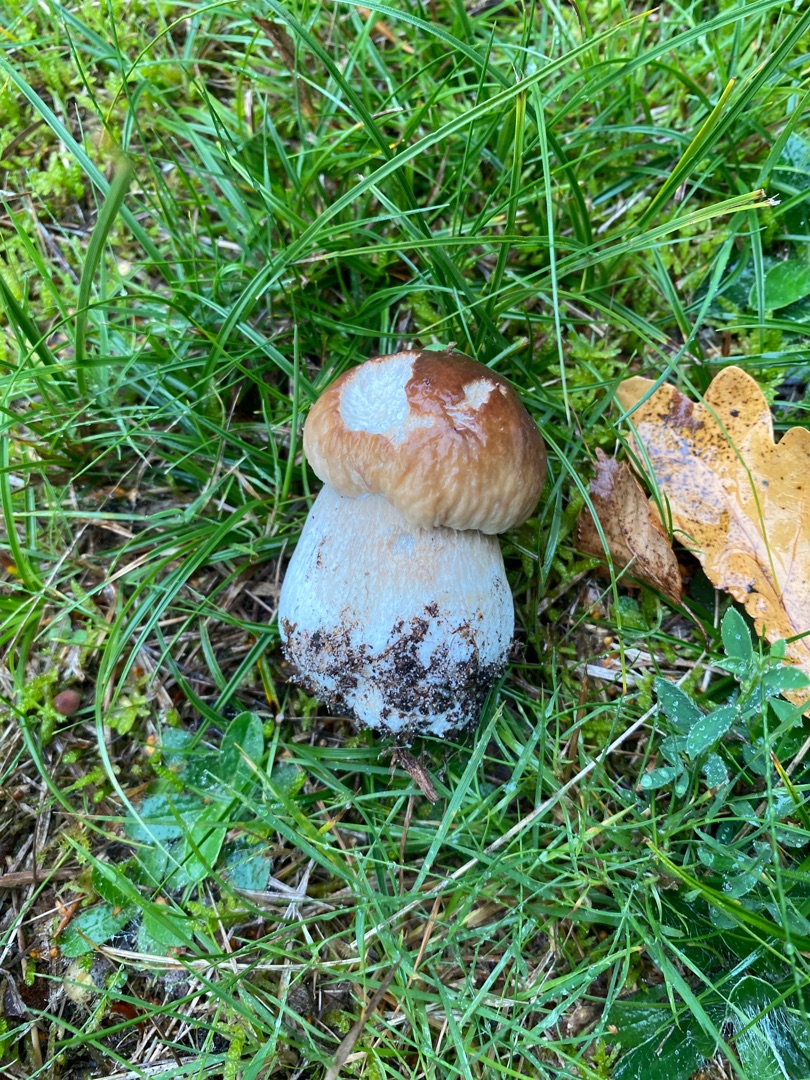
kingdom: Fungi
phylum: Basidiomycota
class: Agaricomycetes
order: Boletales
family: Boletaceae
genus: Boletus
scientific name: Boletus edulis
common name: Spiselig rørhat/karl johan
